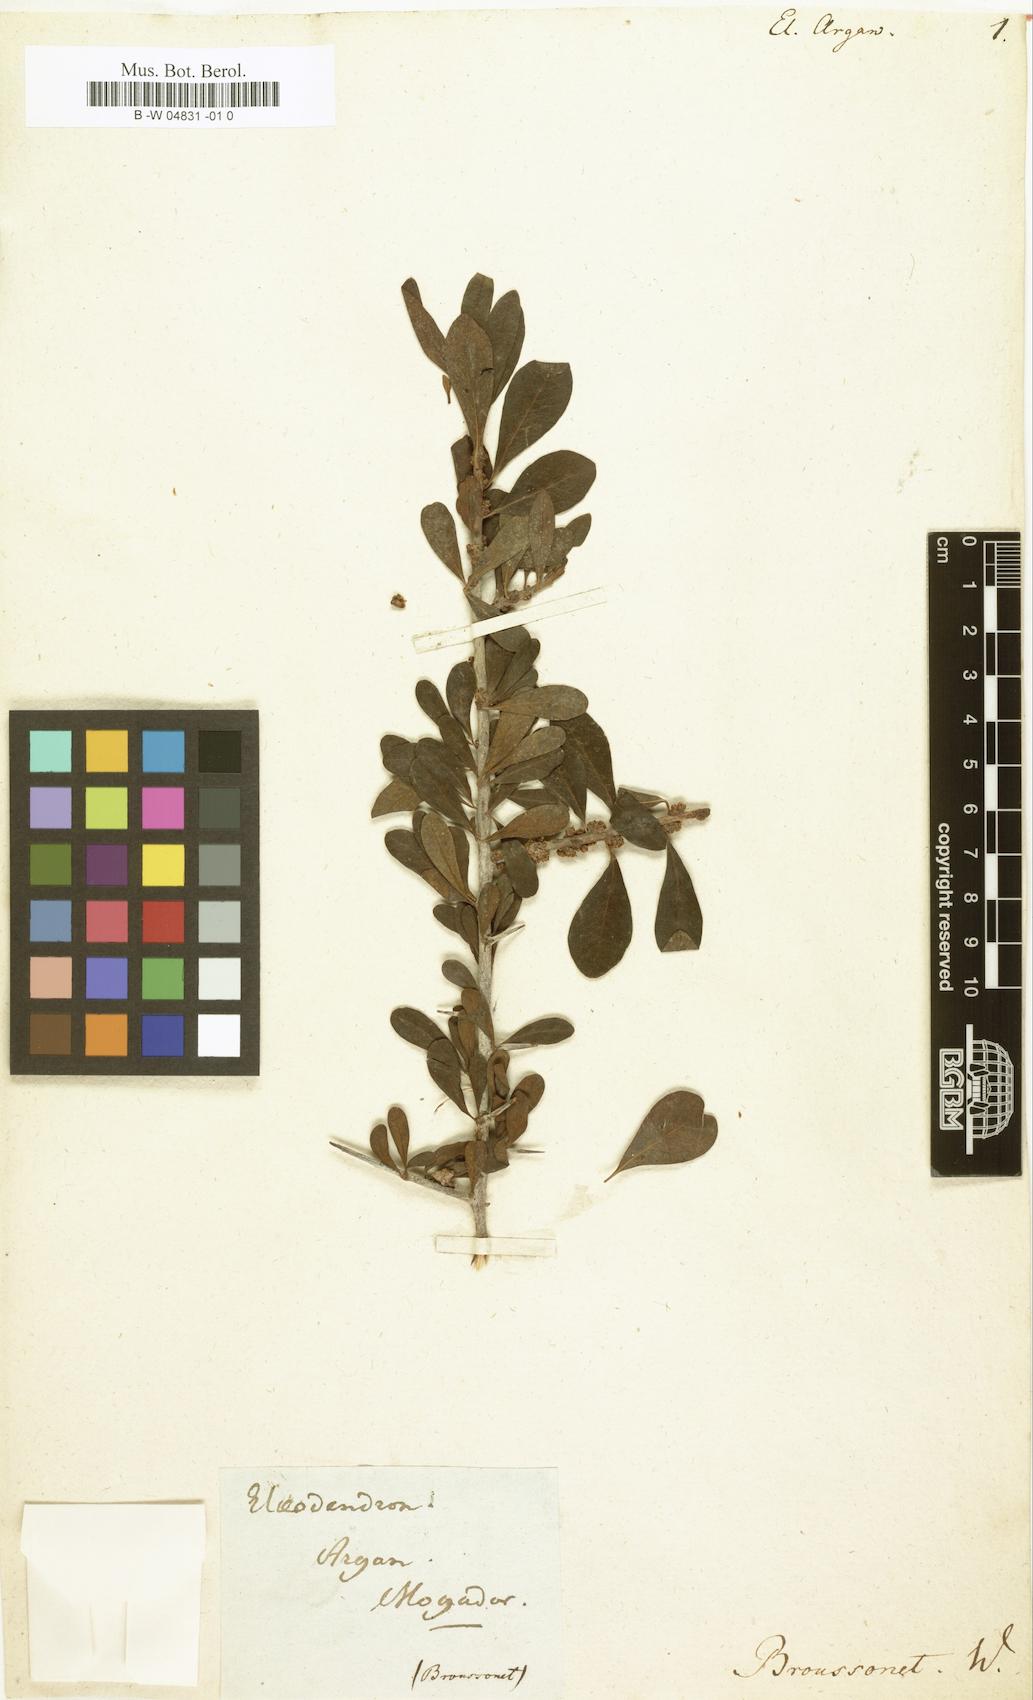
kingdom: Plantae
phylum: Tracheophyta
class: Magnoliopsida
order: Celastrales
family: Celastraceae
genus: Elaeodendron
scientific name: Elaeodendron
